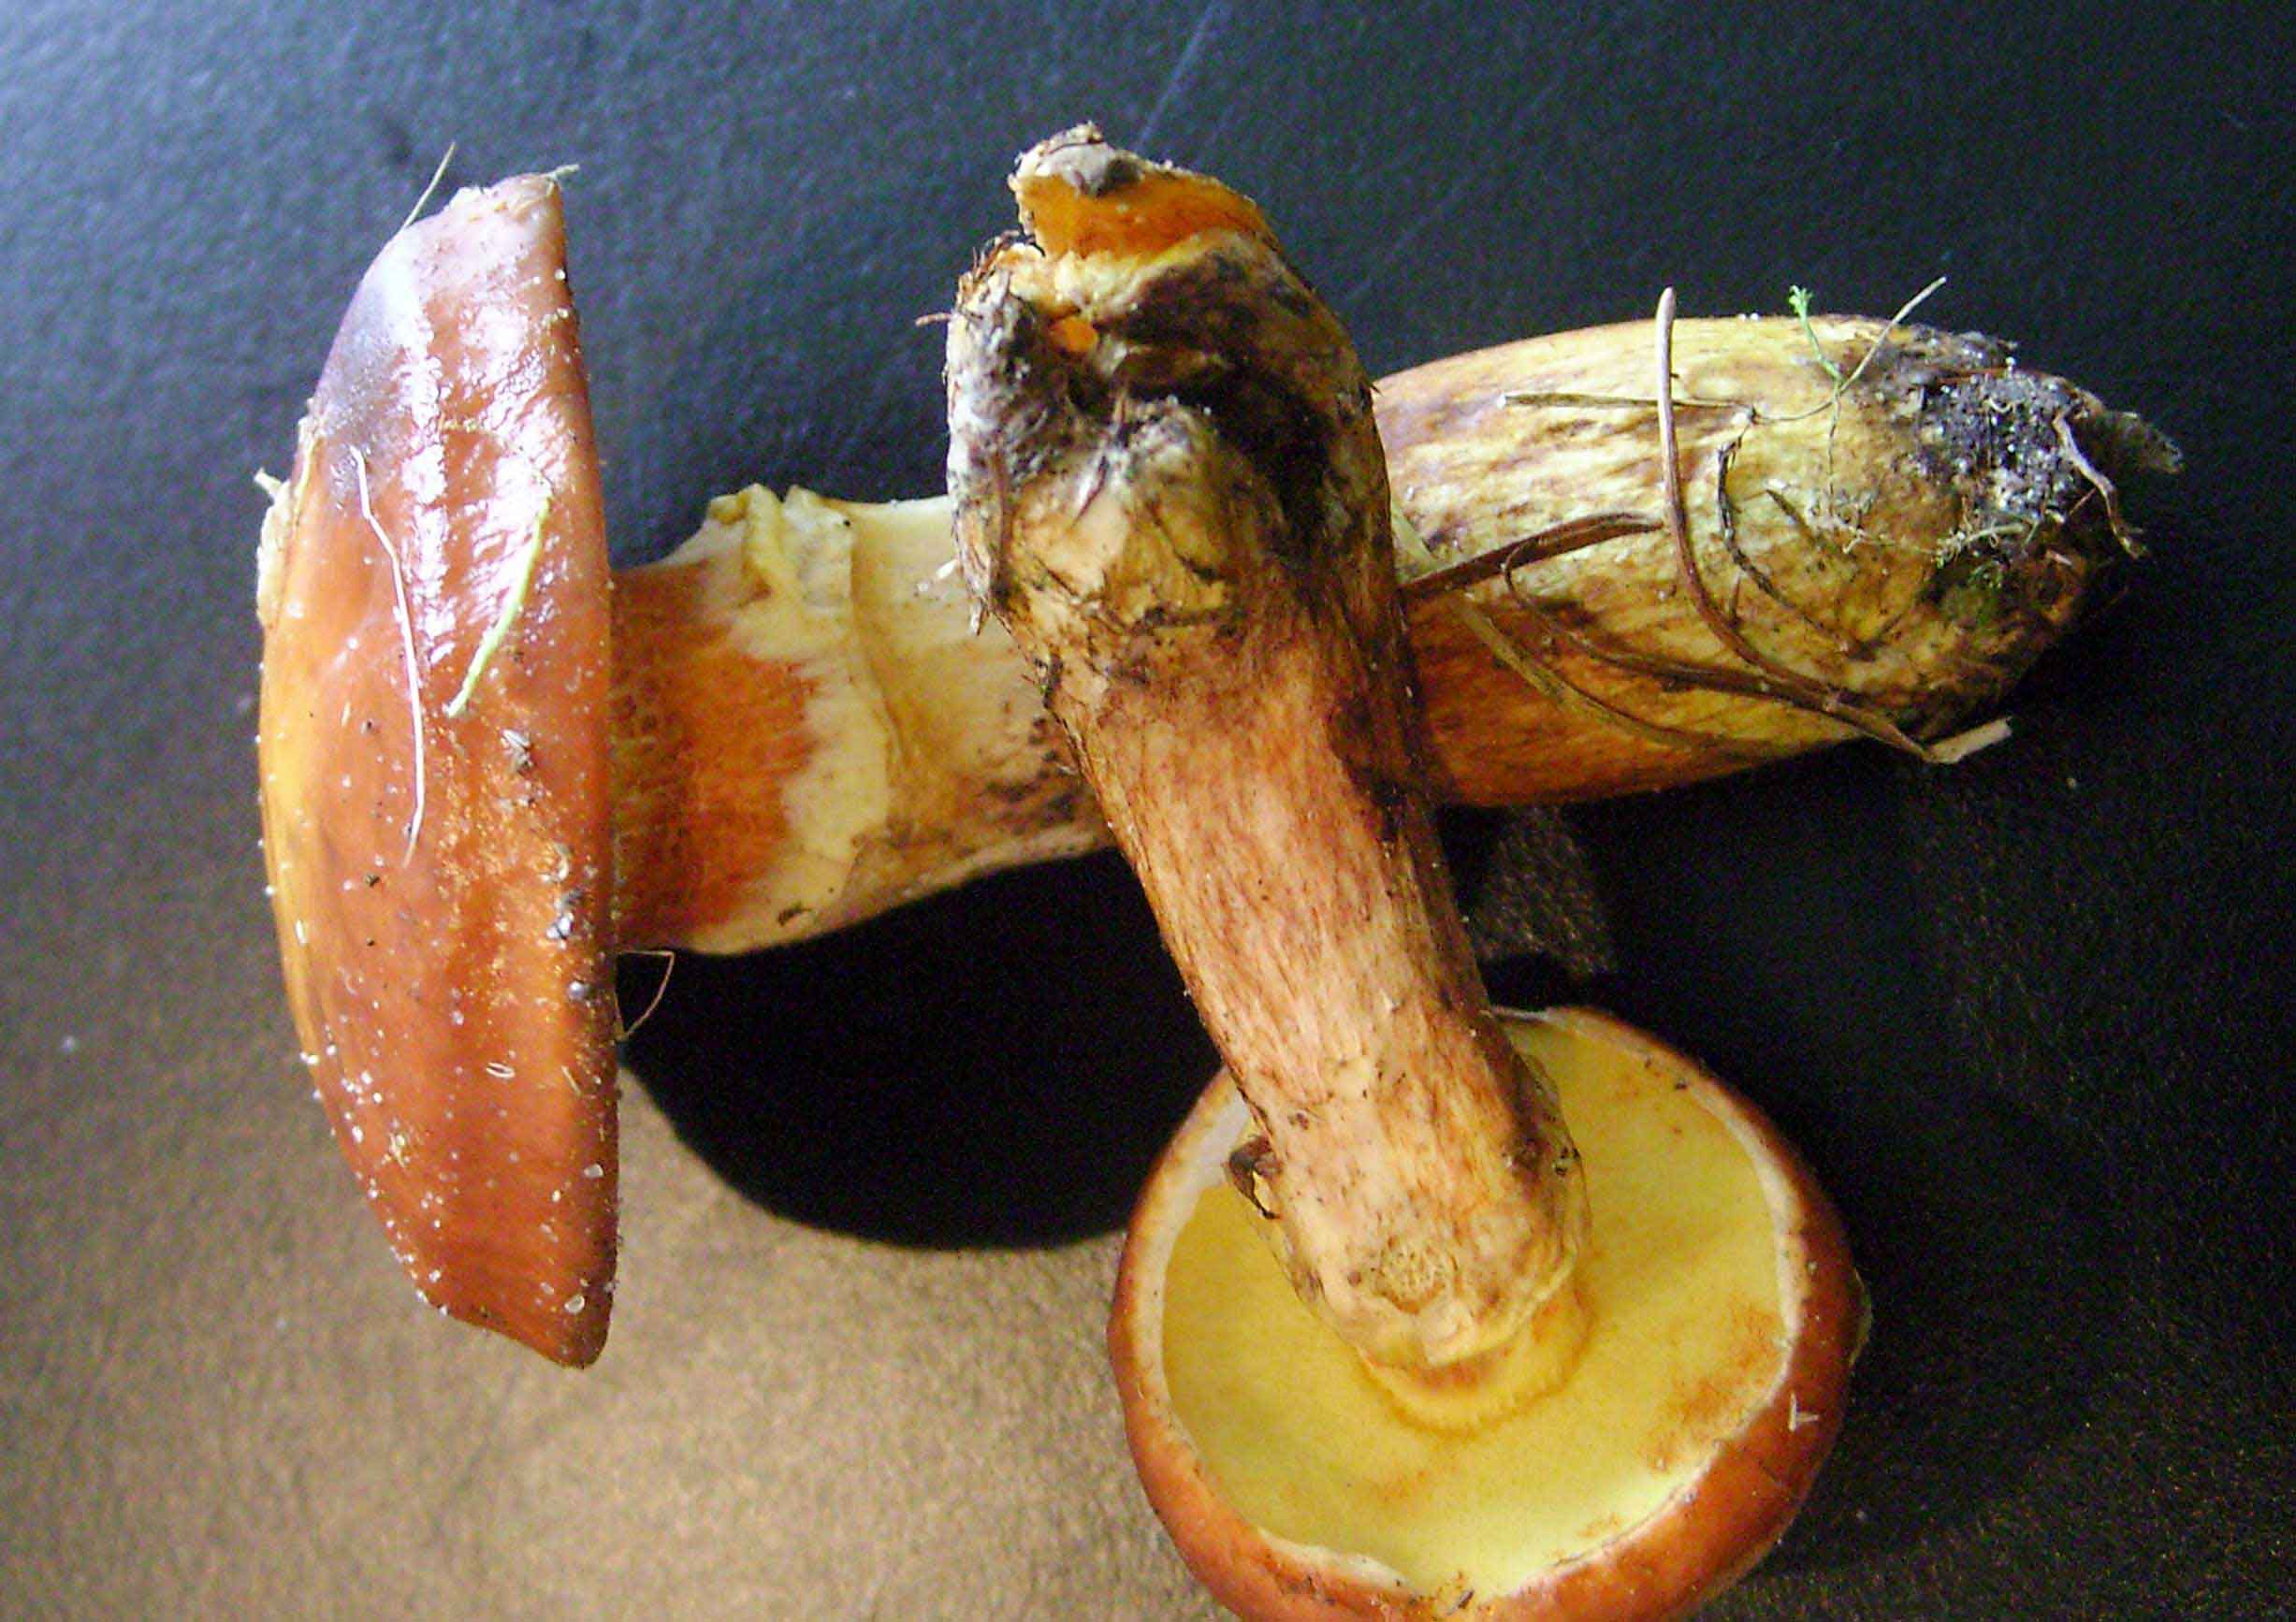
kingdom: Fungi
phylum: Basidiomycota
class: Agaricomycetes
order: Boletales
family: Suillaceae
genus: Suillus
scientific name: Suillus grevillei
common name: lærke-slimrørhat
